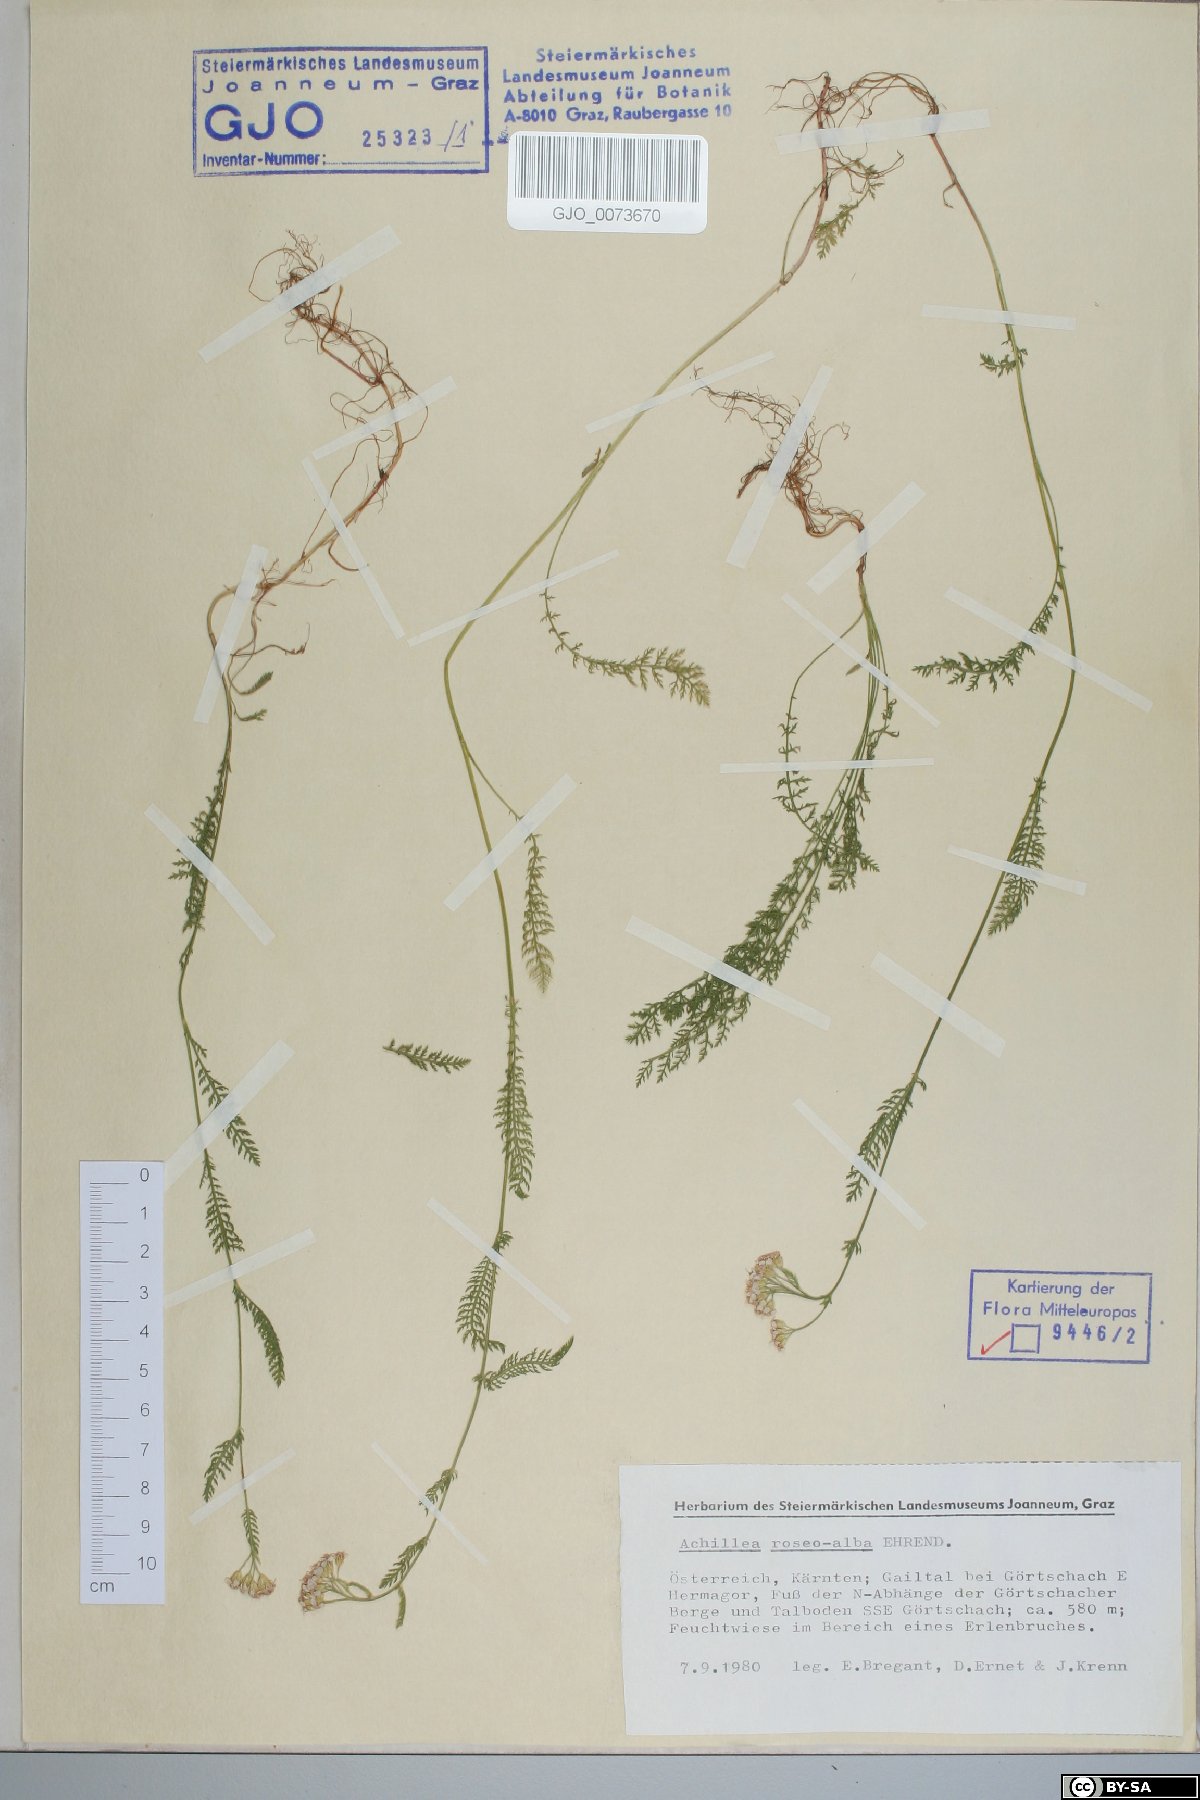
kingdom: Plantae
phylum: Tracheophyta
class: Magnoliopsida
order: Asterales
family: Asteraceae
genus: Achillea
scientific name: Achillea roseoalba
